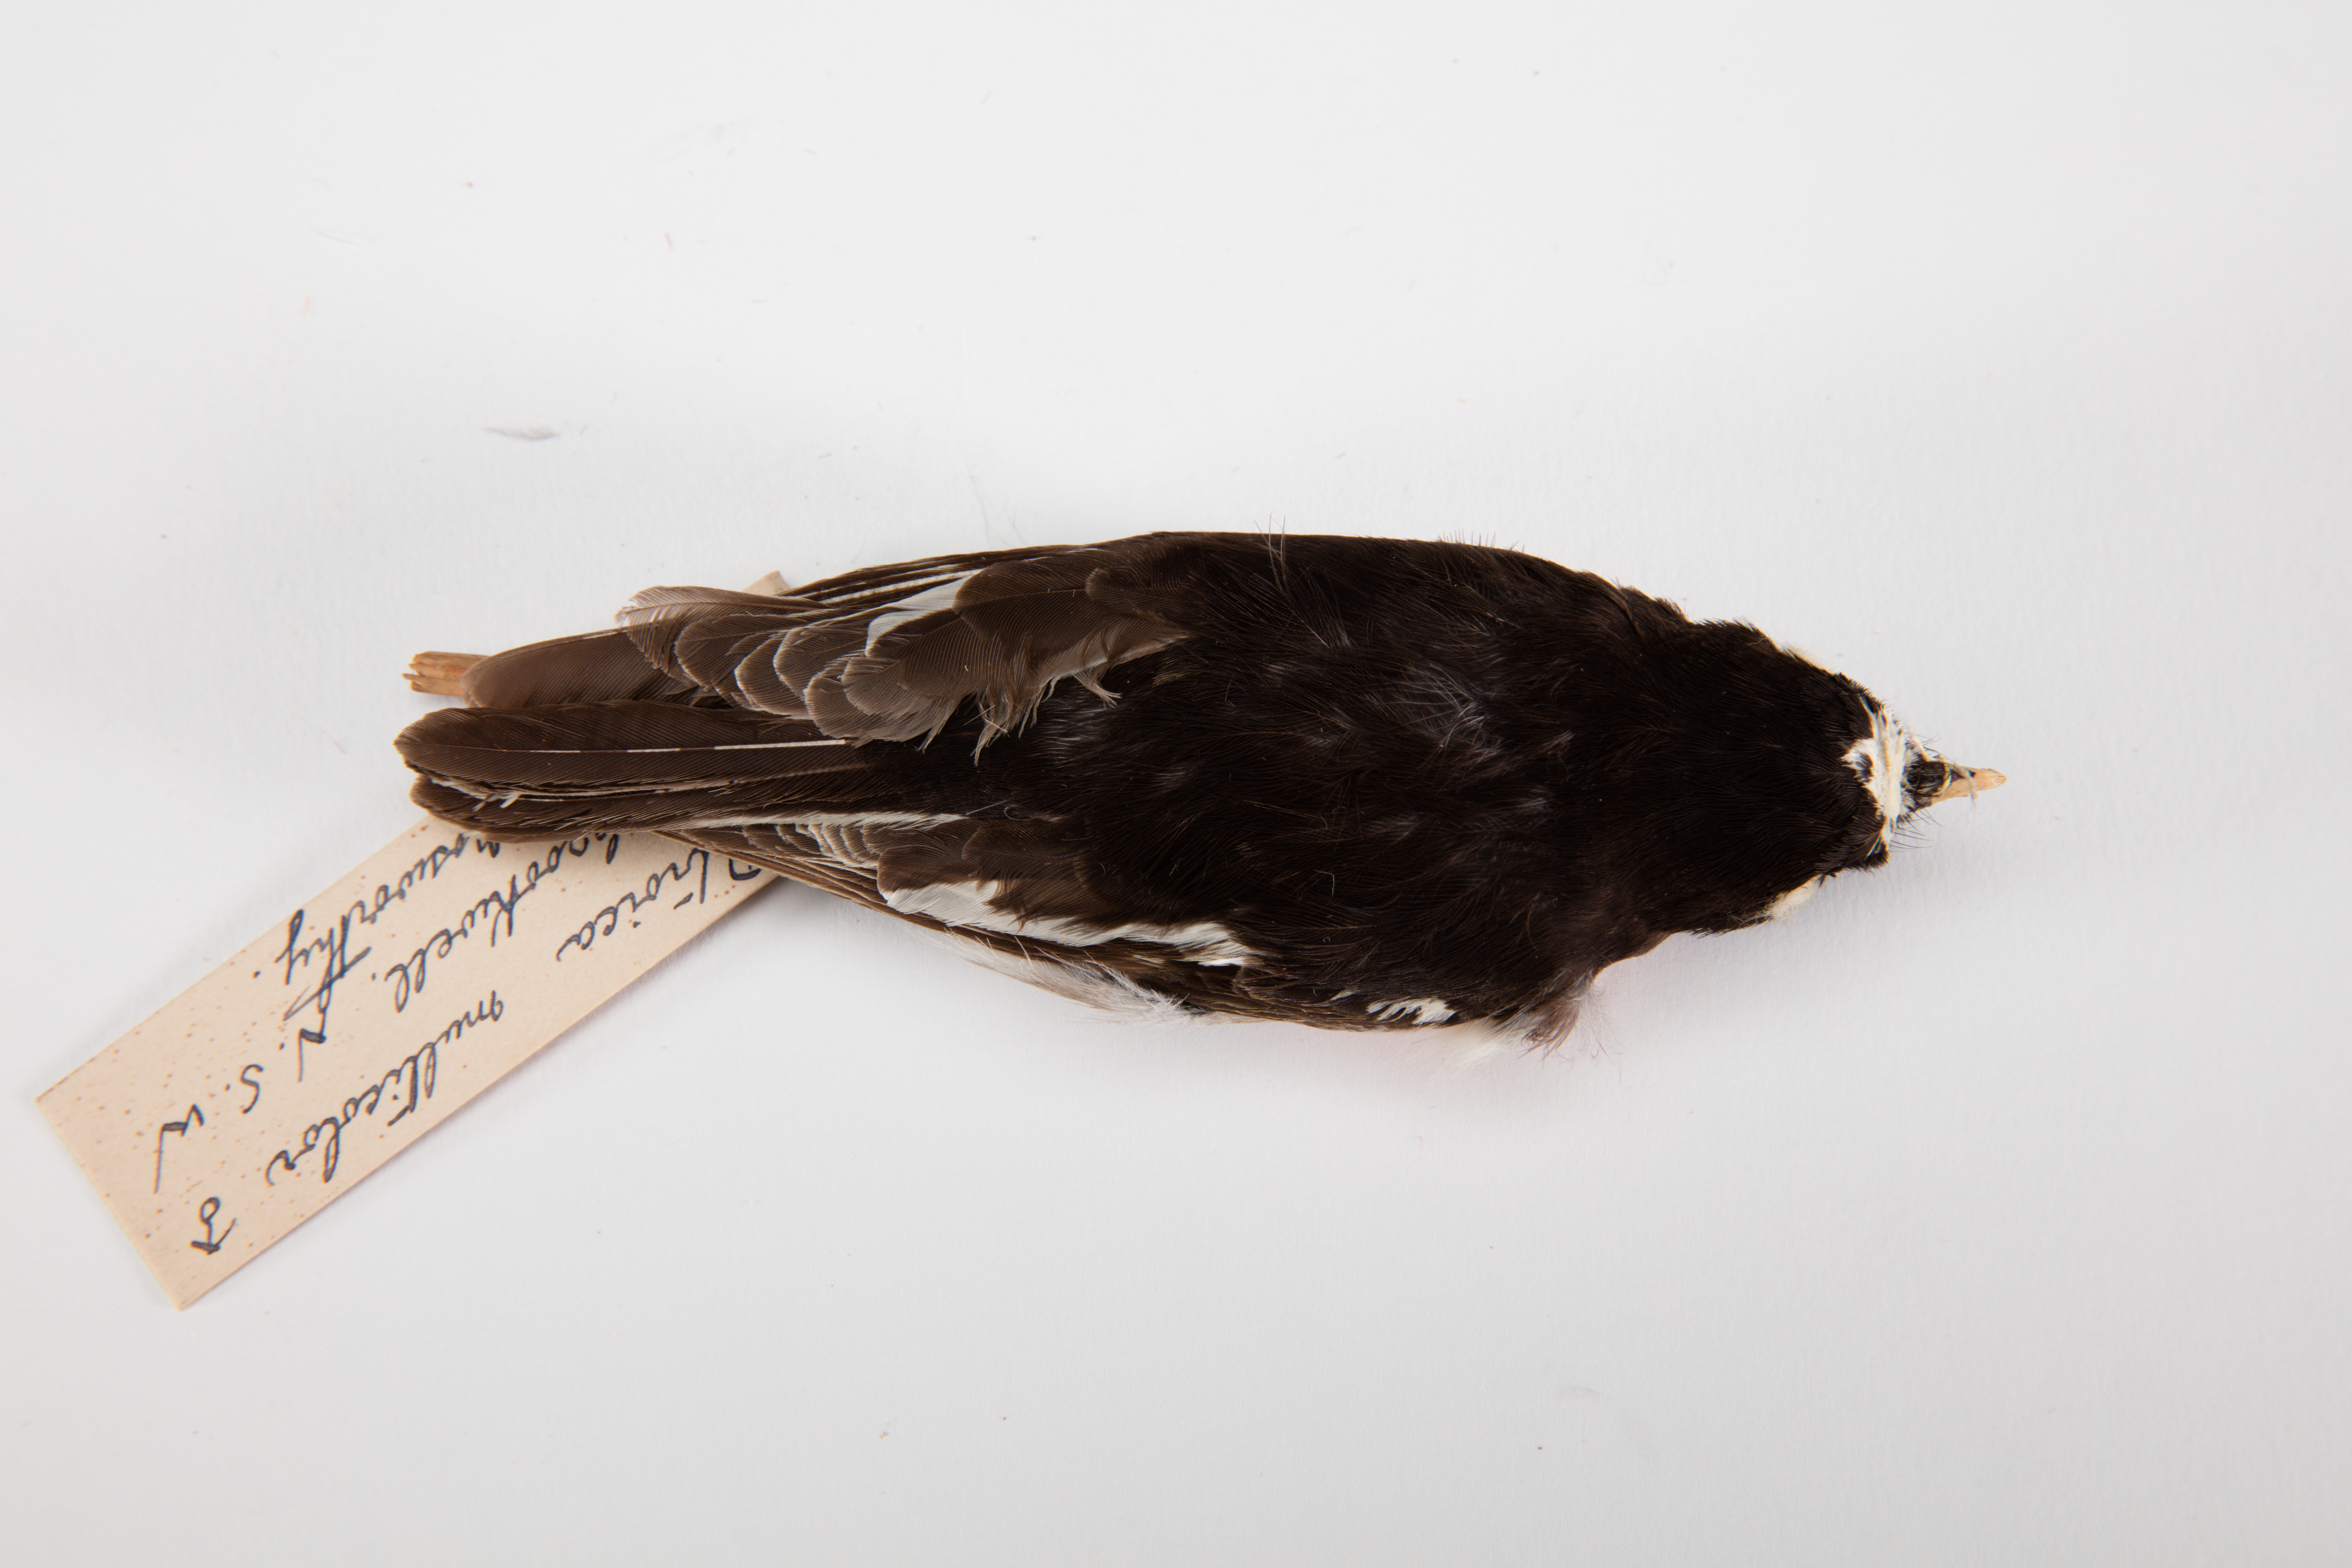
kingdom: Animalia
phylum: Chordata
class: Aves
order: Passeriformes
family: Petroicidae
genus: Petroica
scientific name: Petroica multicolor
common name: Pacific robin
